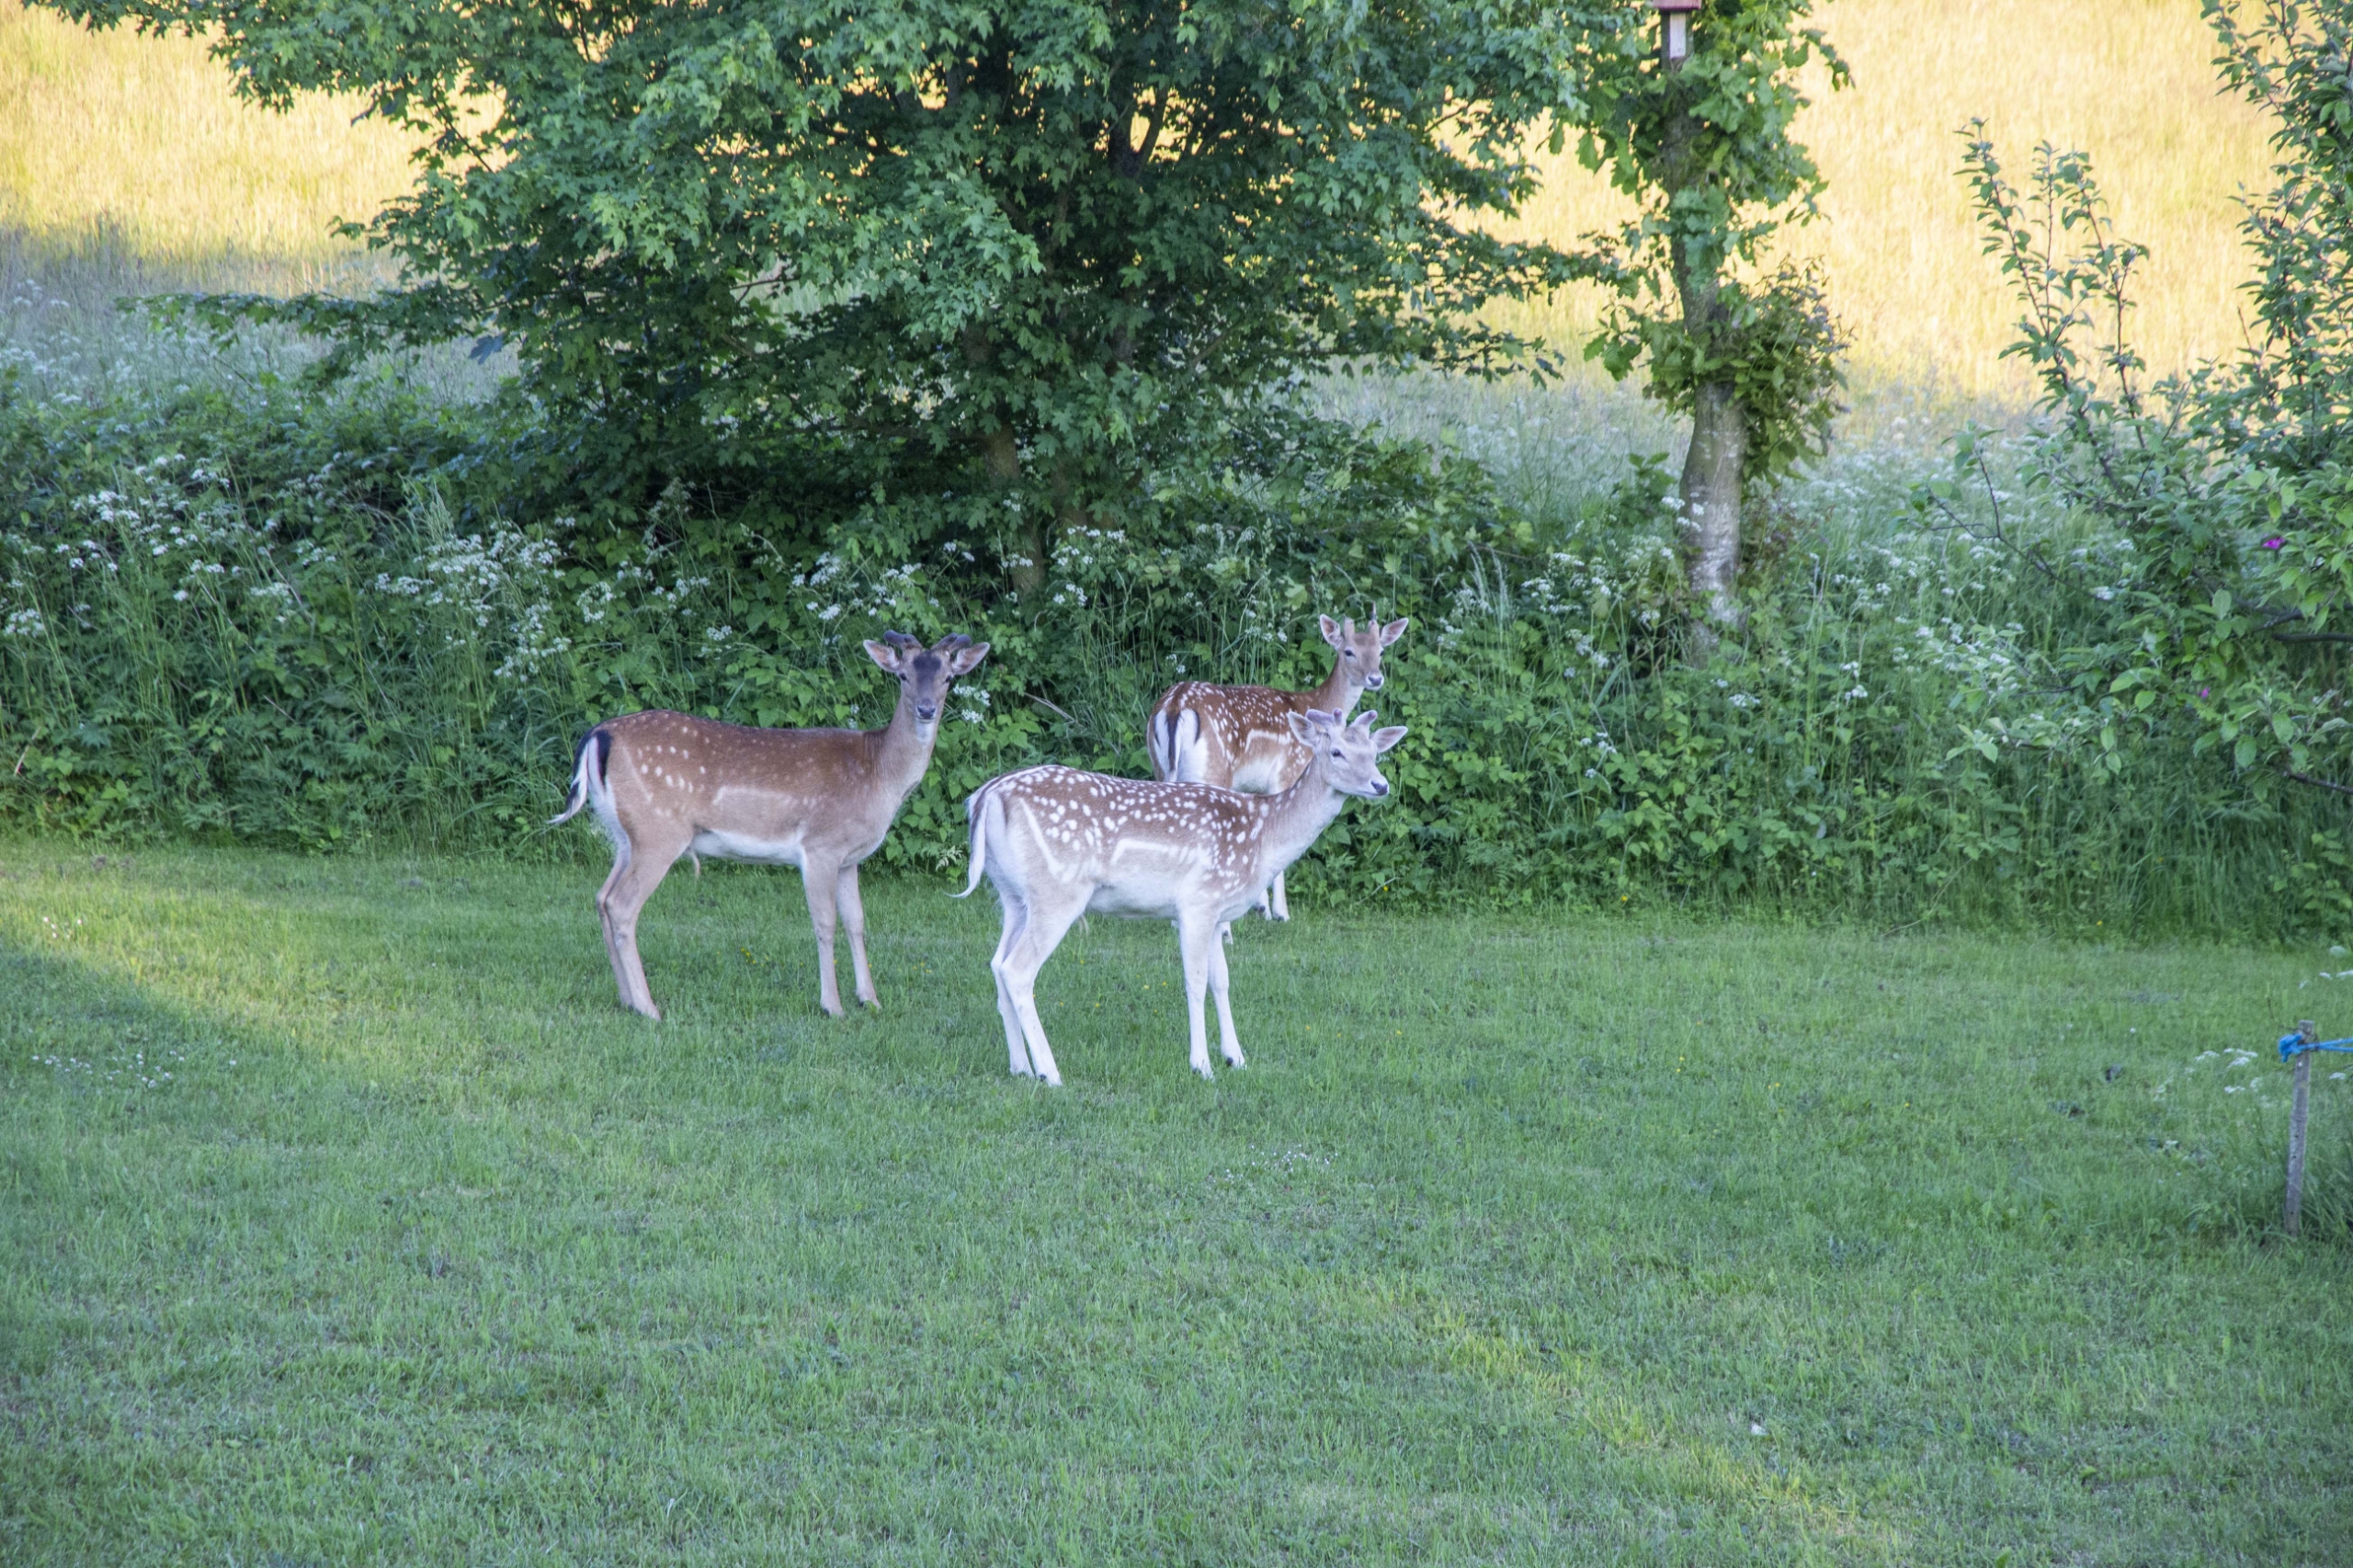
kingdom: Animalia
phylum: Chordata
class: Mammalia
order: Artiodactyla
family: Cervidae
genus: Dama
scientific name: Dama dama
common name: Dådyr
